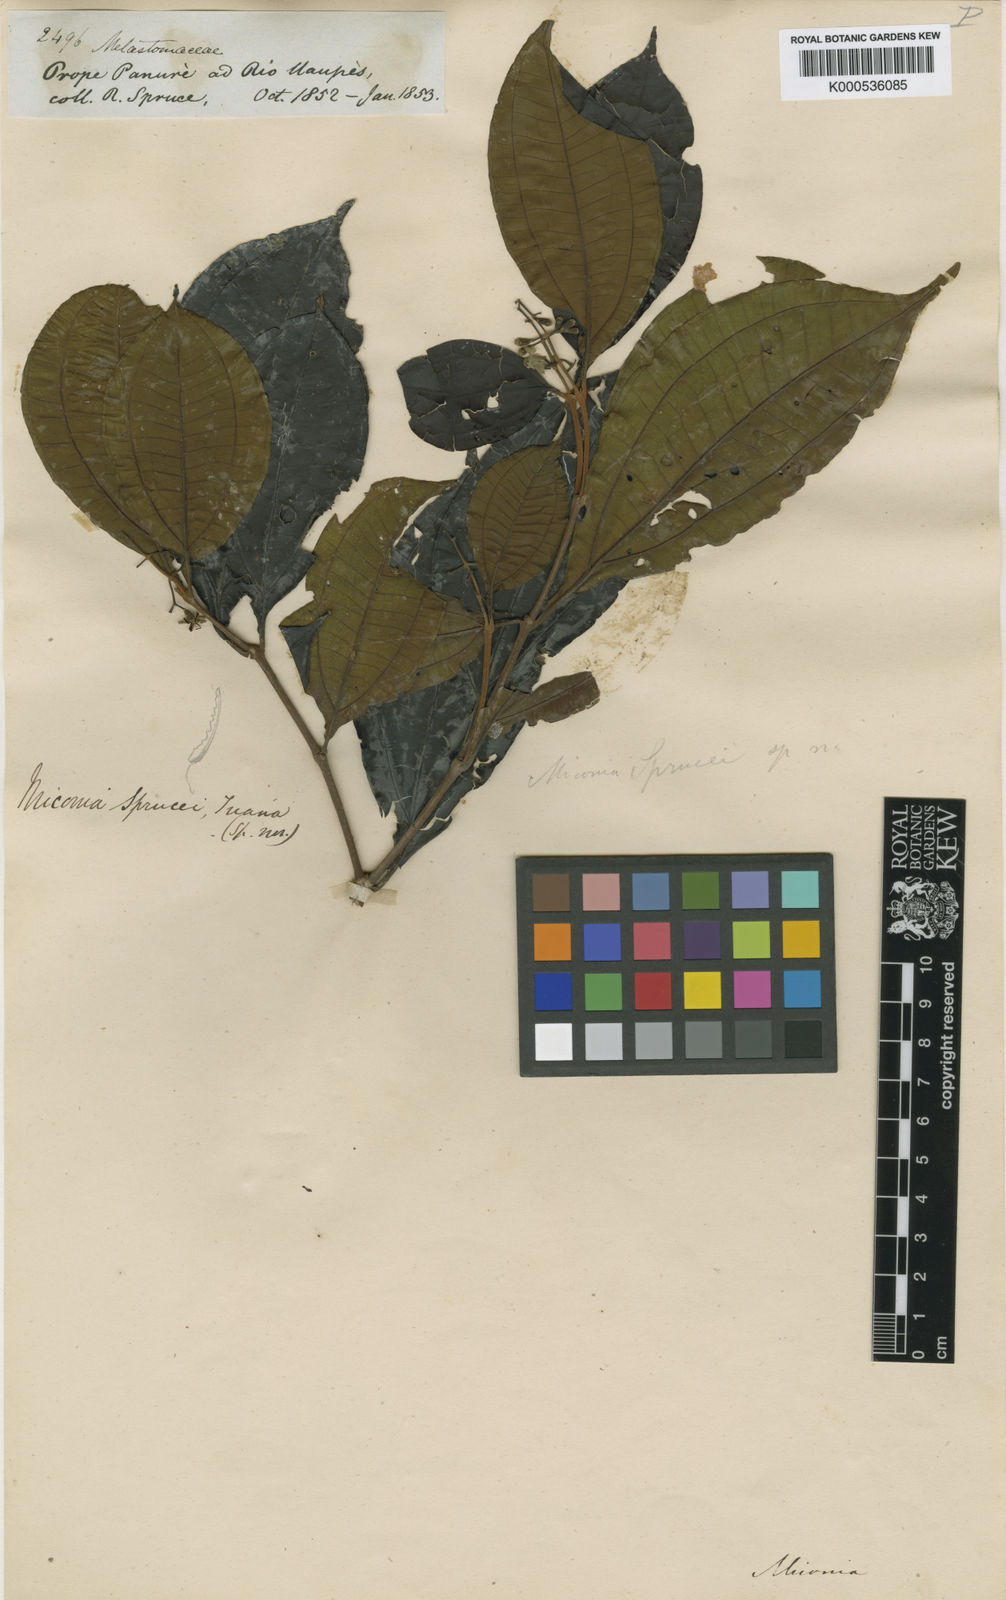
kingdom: Plantae
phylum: Tracheophyta
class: Magnoliopsida
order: Myrtales
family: Melastomataceae
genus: Miconia
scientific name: Miconia sprucei
